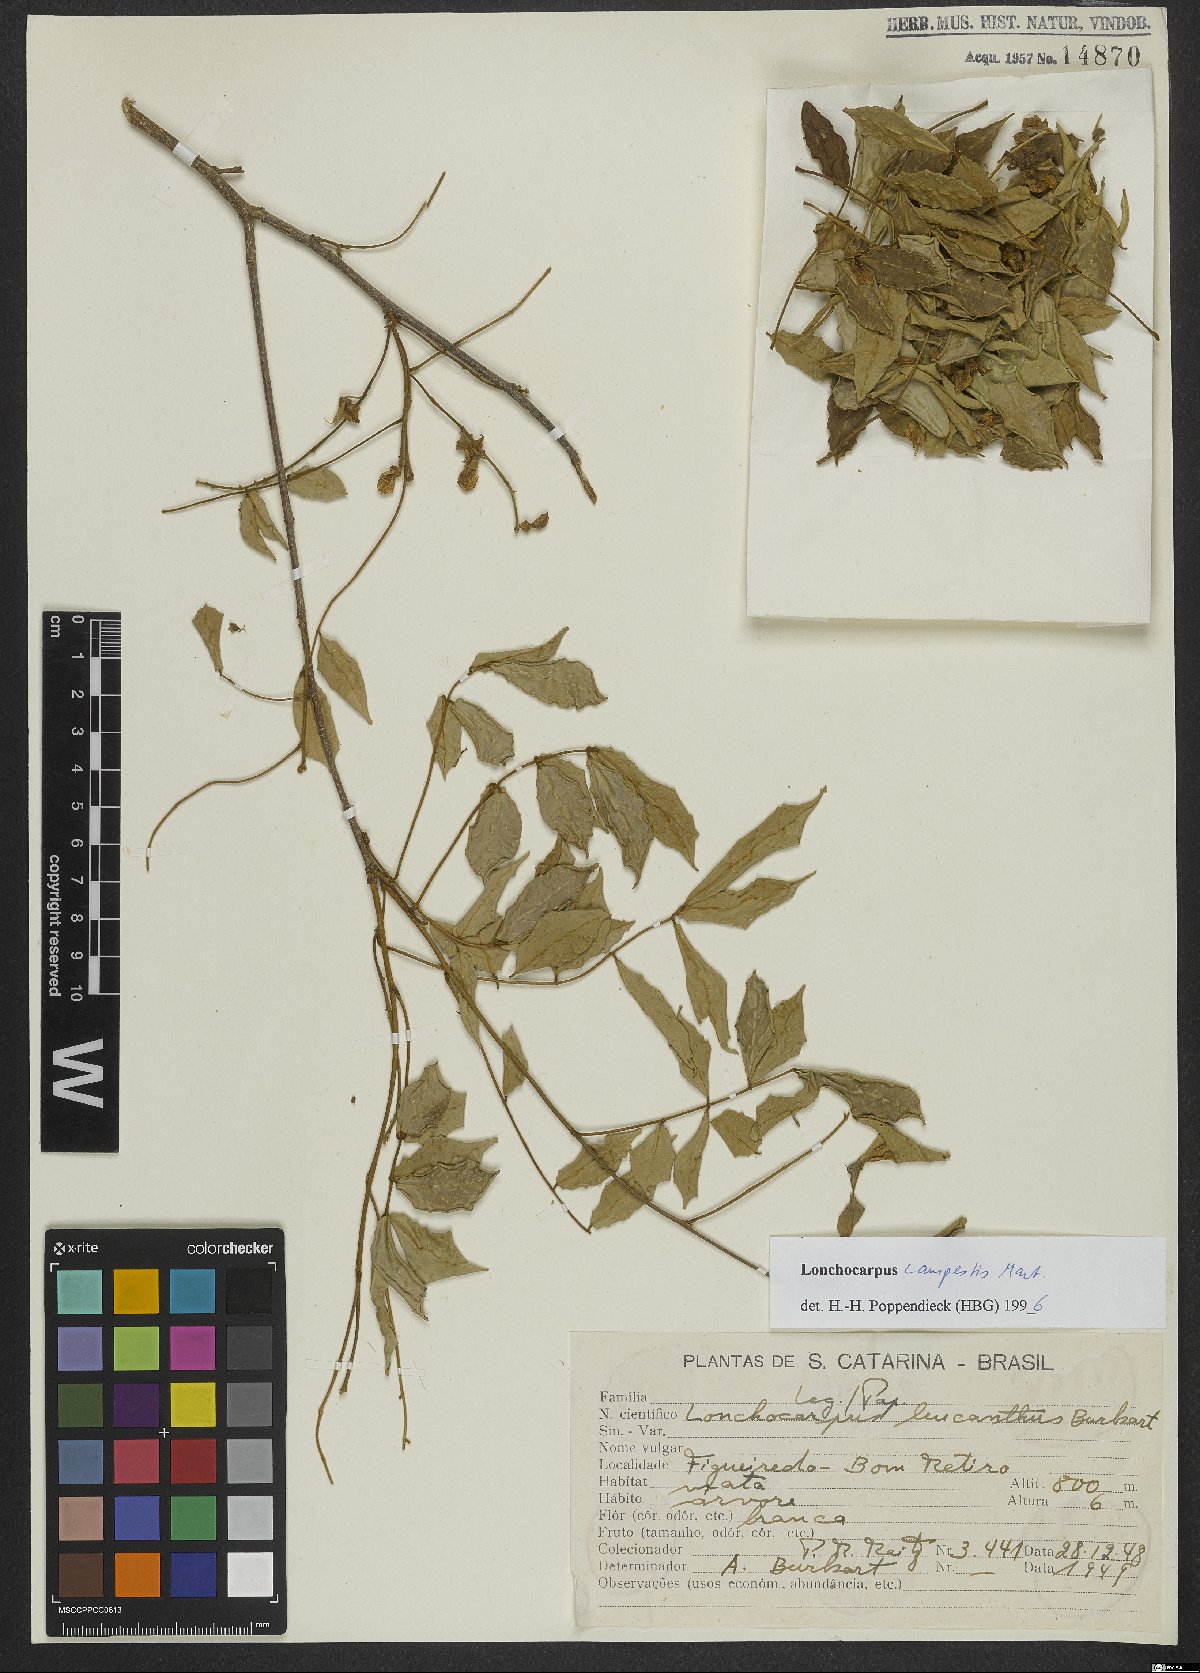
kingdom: Plantae
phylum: Tracheophyta
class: Magnoliopsida
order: Fabales
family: Fabaceae
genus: Muellera
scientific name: Muellera campestris
